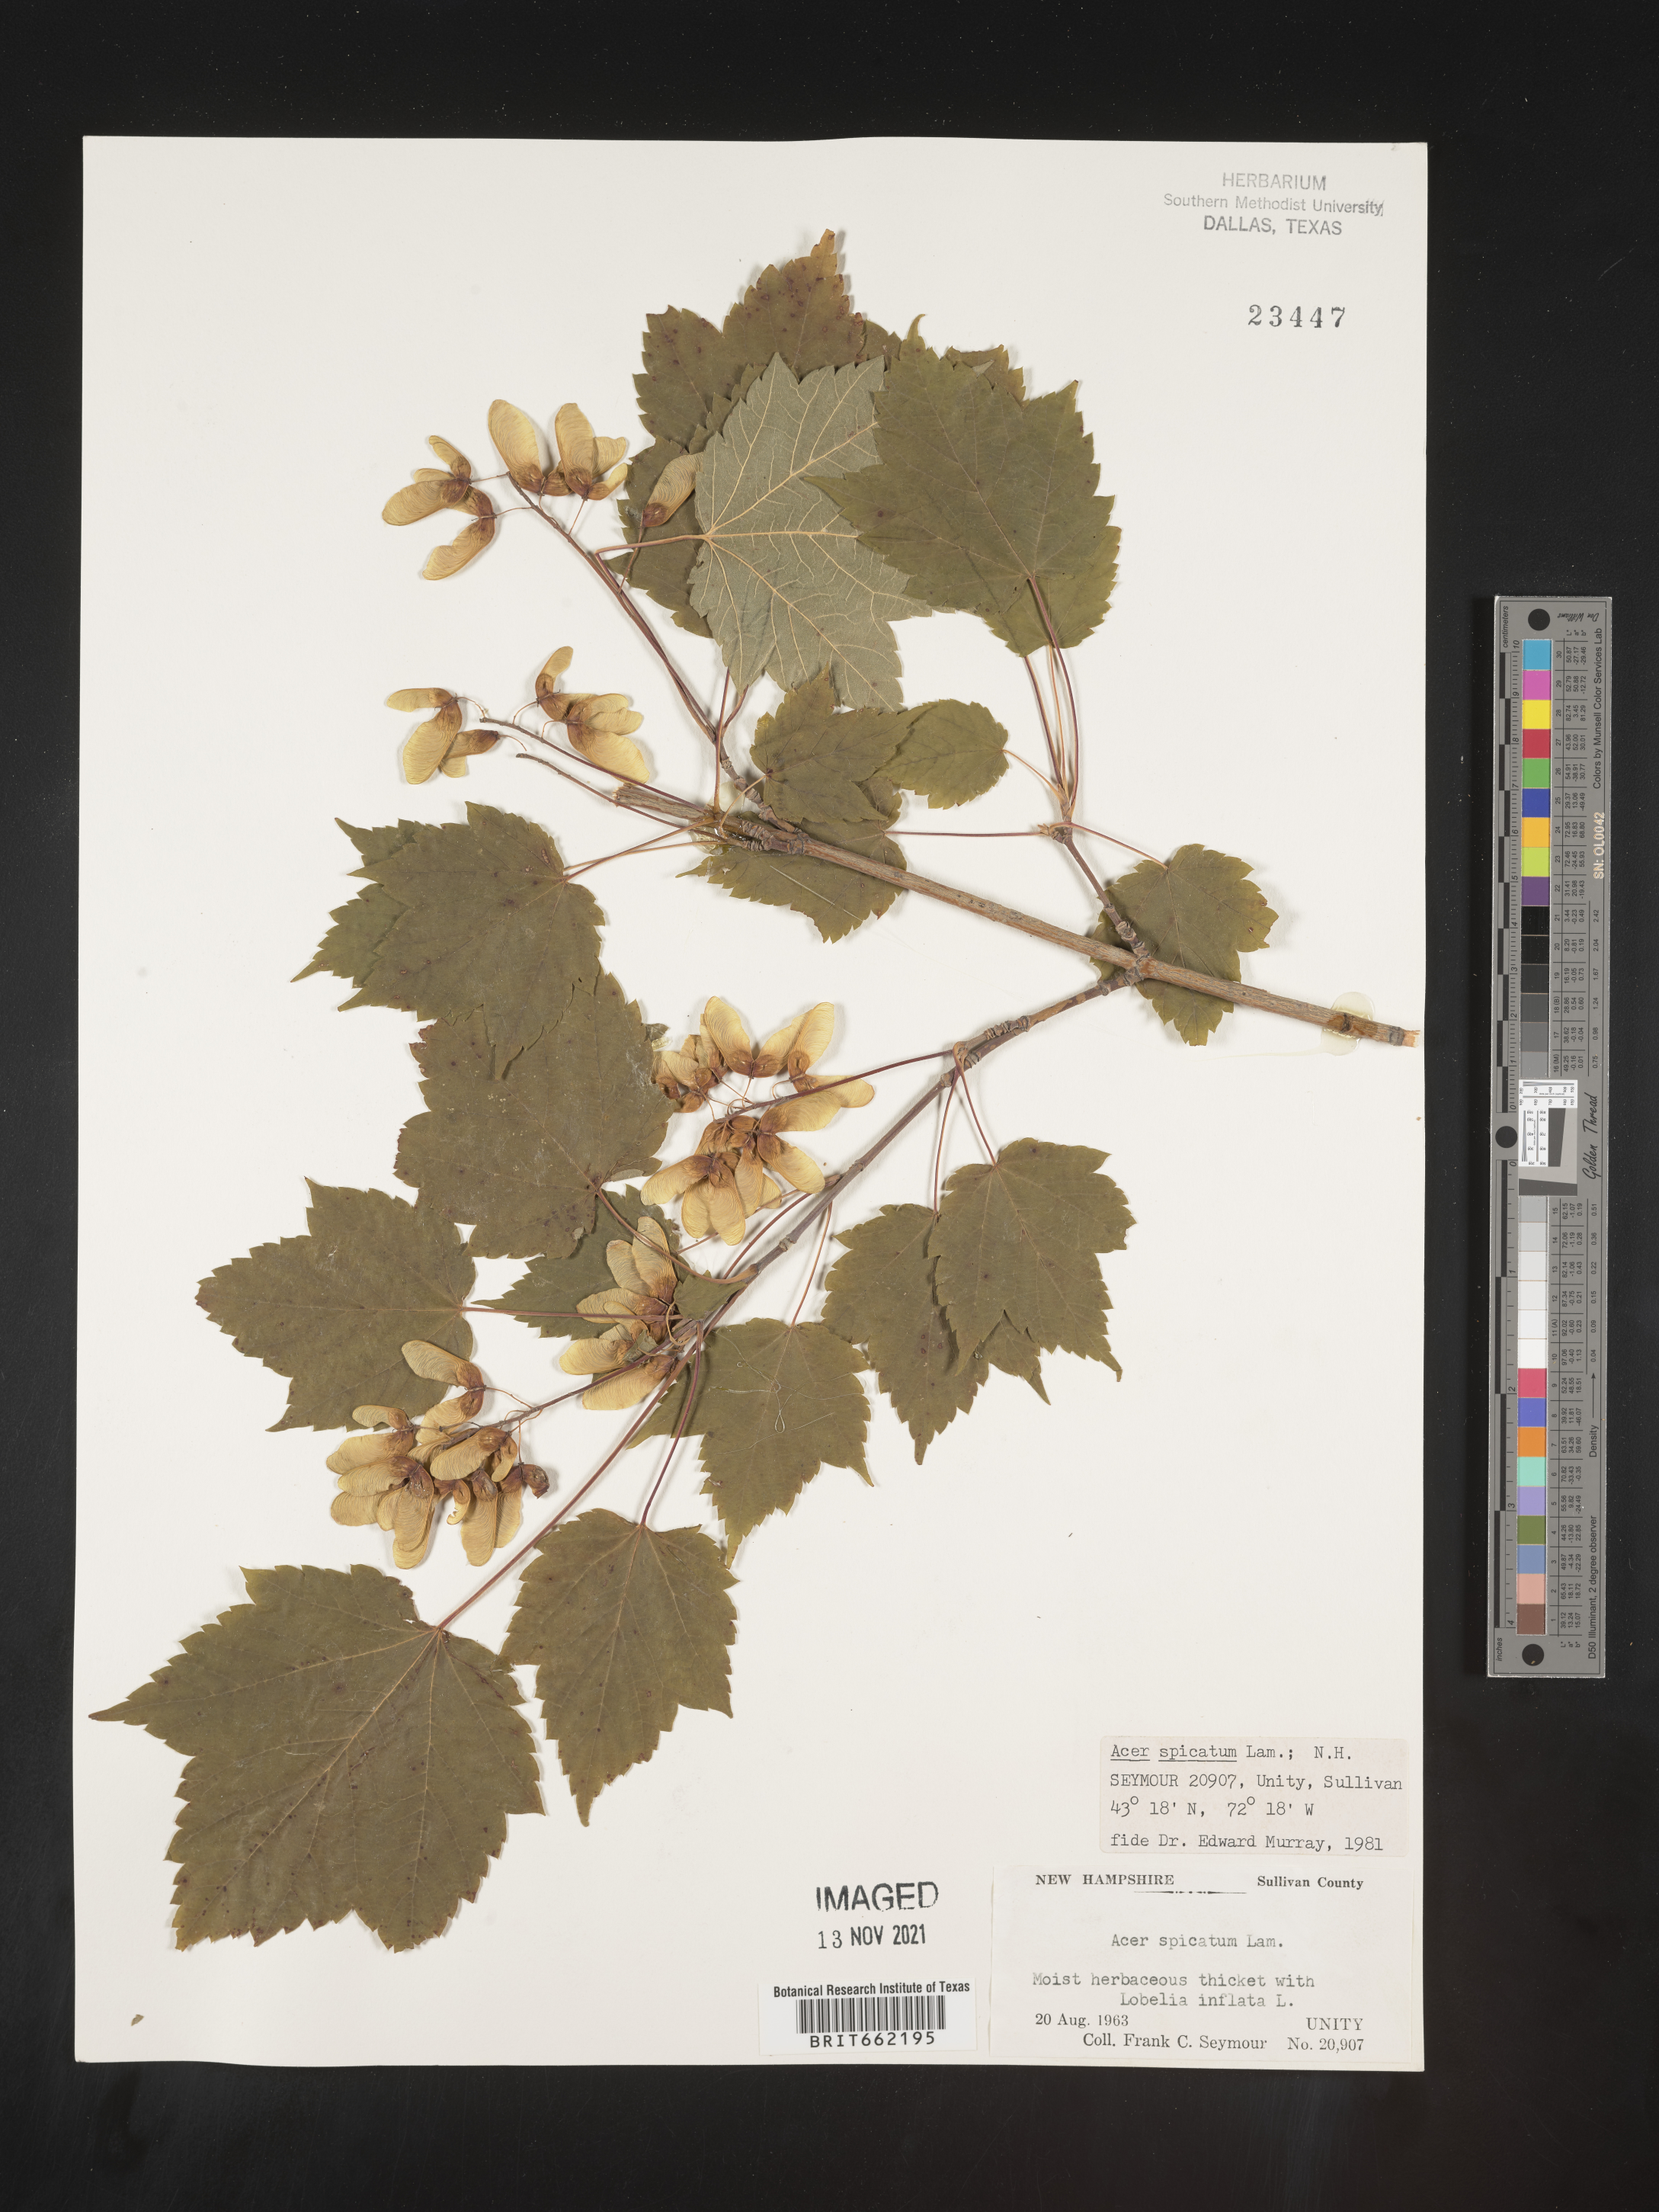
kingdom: Plantae
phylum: Tracheophyta
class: Magnoliopsida
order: Sapindales
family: Sapindaceae
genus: Acer
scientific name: Acer spicatum
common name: Mountain maple
